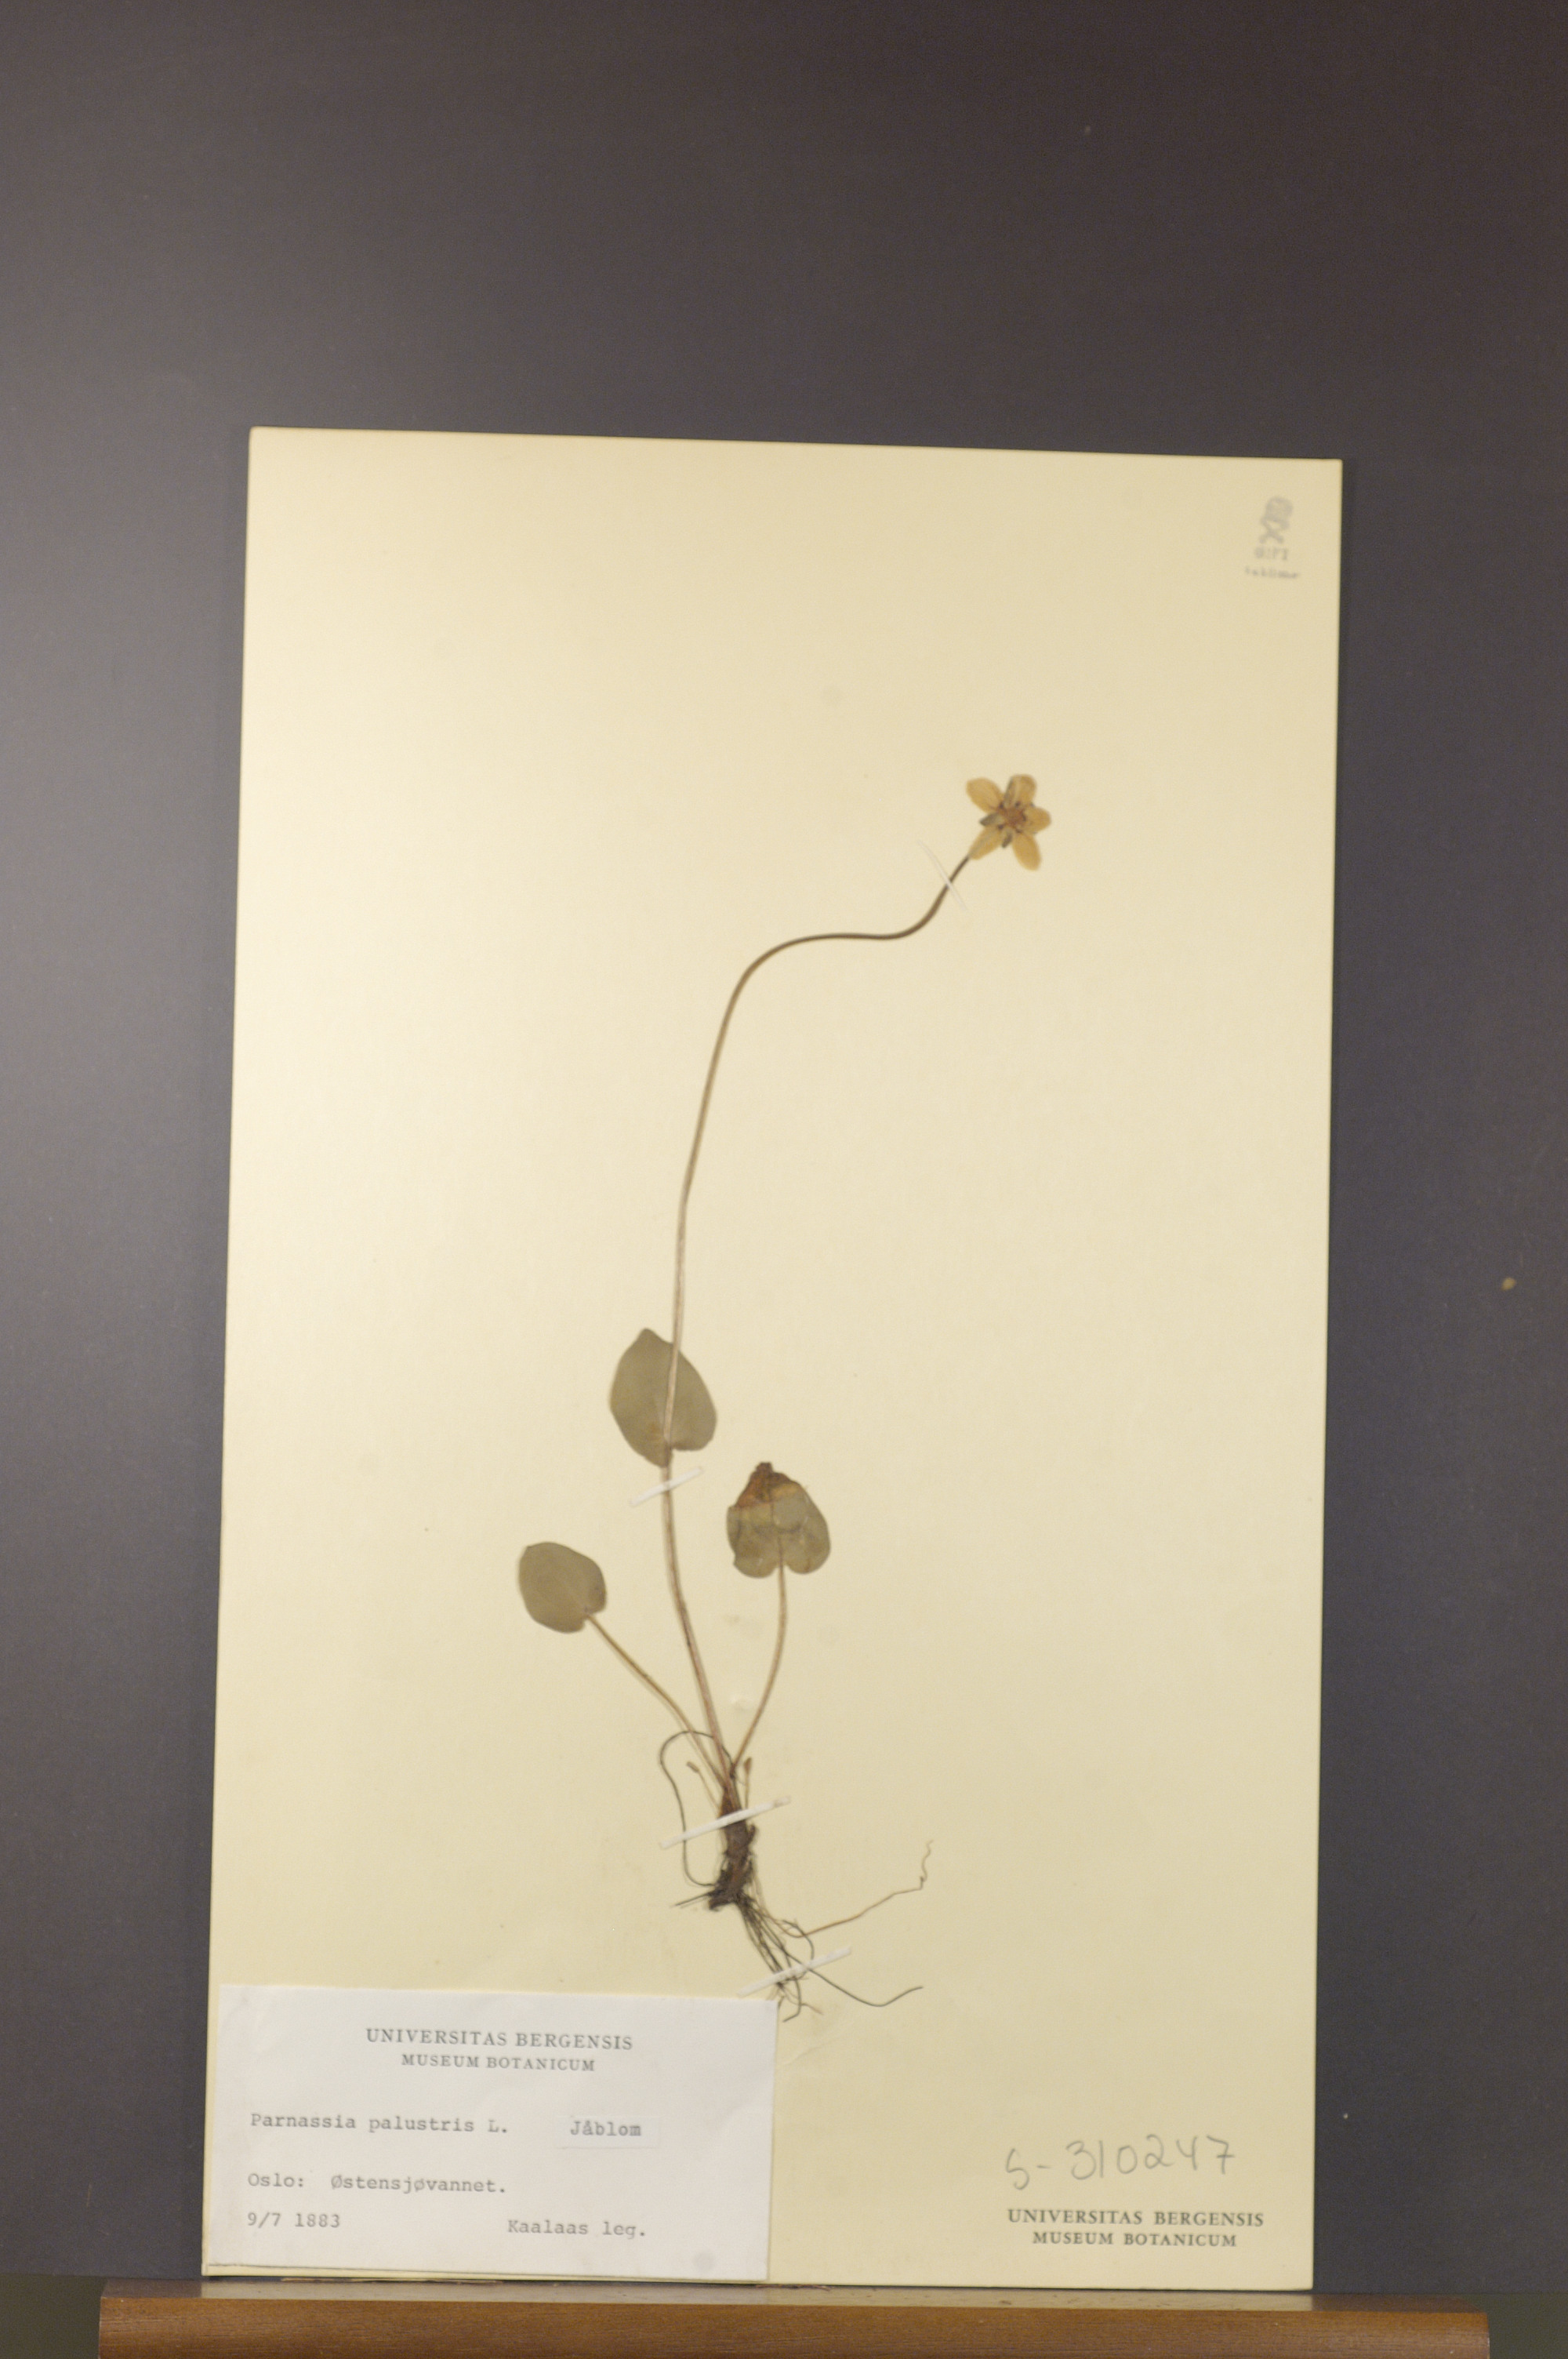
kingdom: Plantae
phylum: Tracheophyta
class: Magnoliopsida
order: Celastrales
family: Parnassiaceae
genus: Parnassia
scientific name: Parnassia palustris
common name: Grass-of-parnassus
